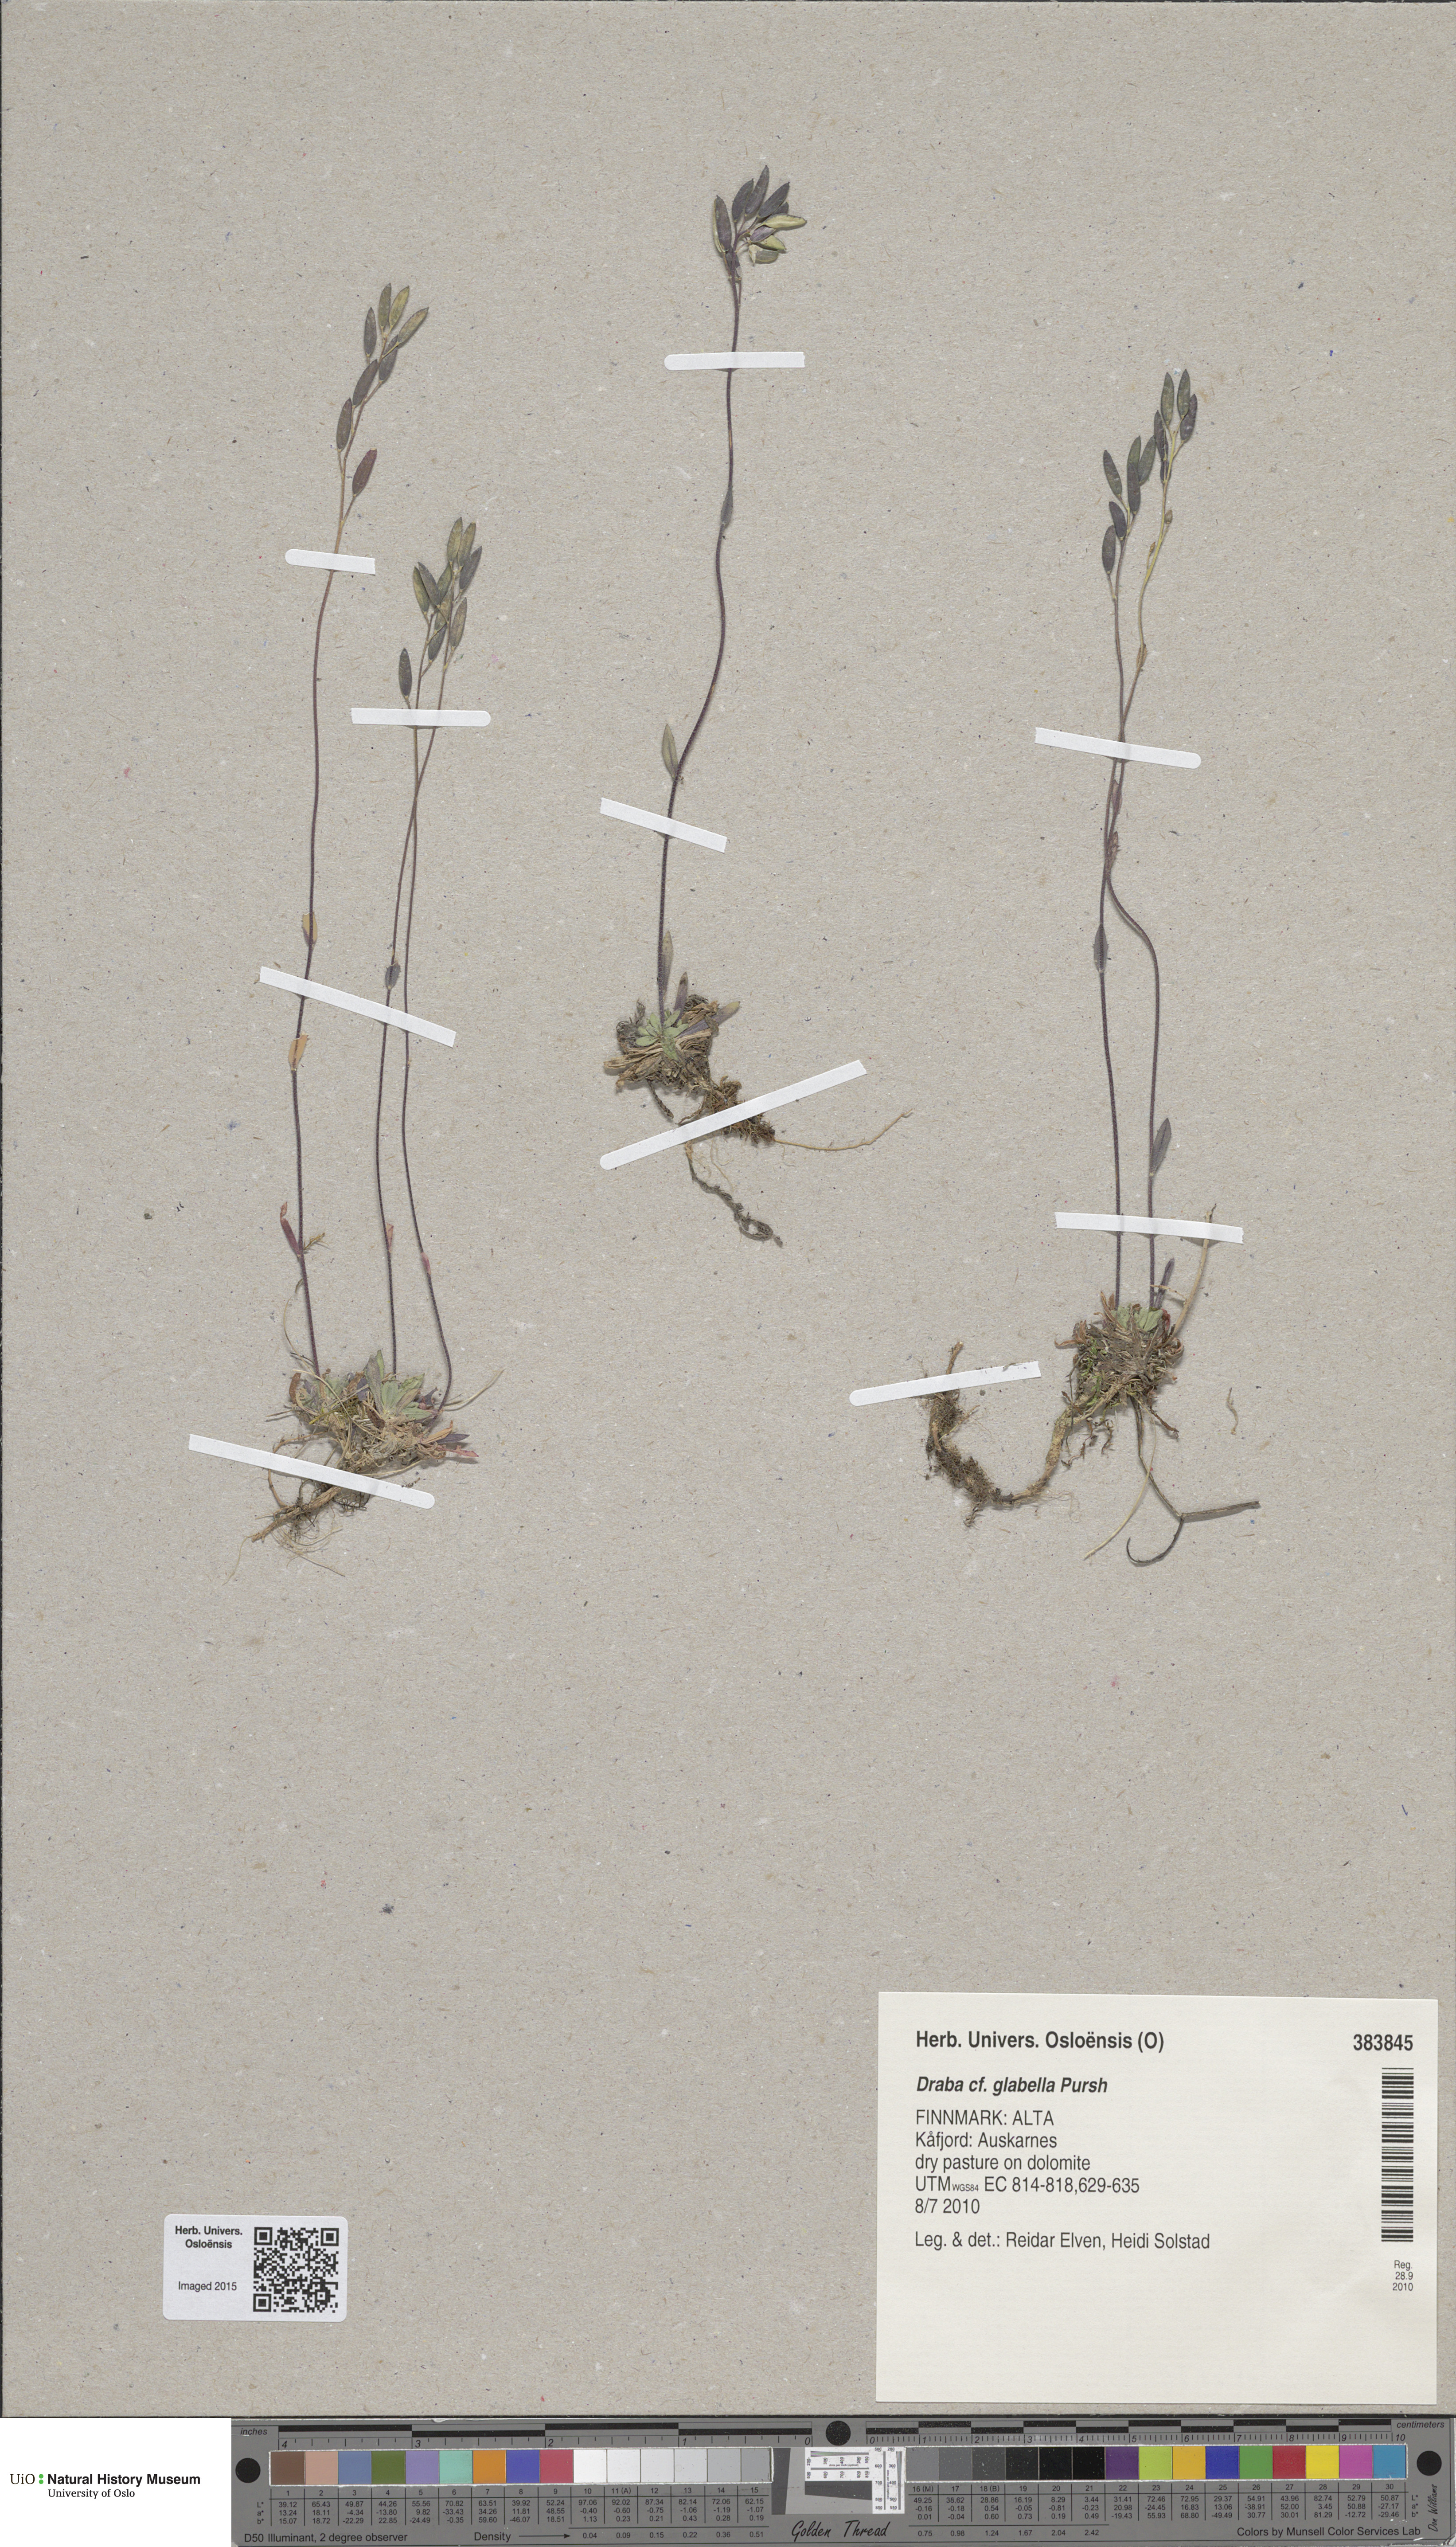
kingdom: Plantae
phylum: Tracheophyta
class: Magnoliopsida
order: Brassicales
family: Brassicaceae
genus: Draba
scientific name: Draba glabella
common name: Glaucous draba
